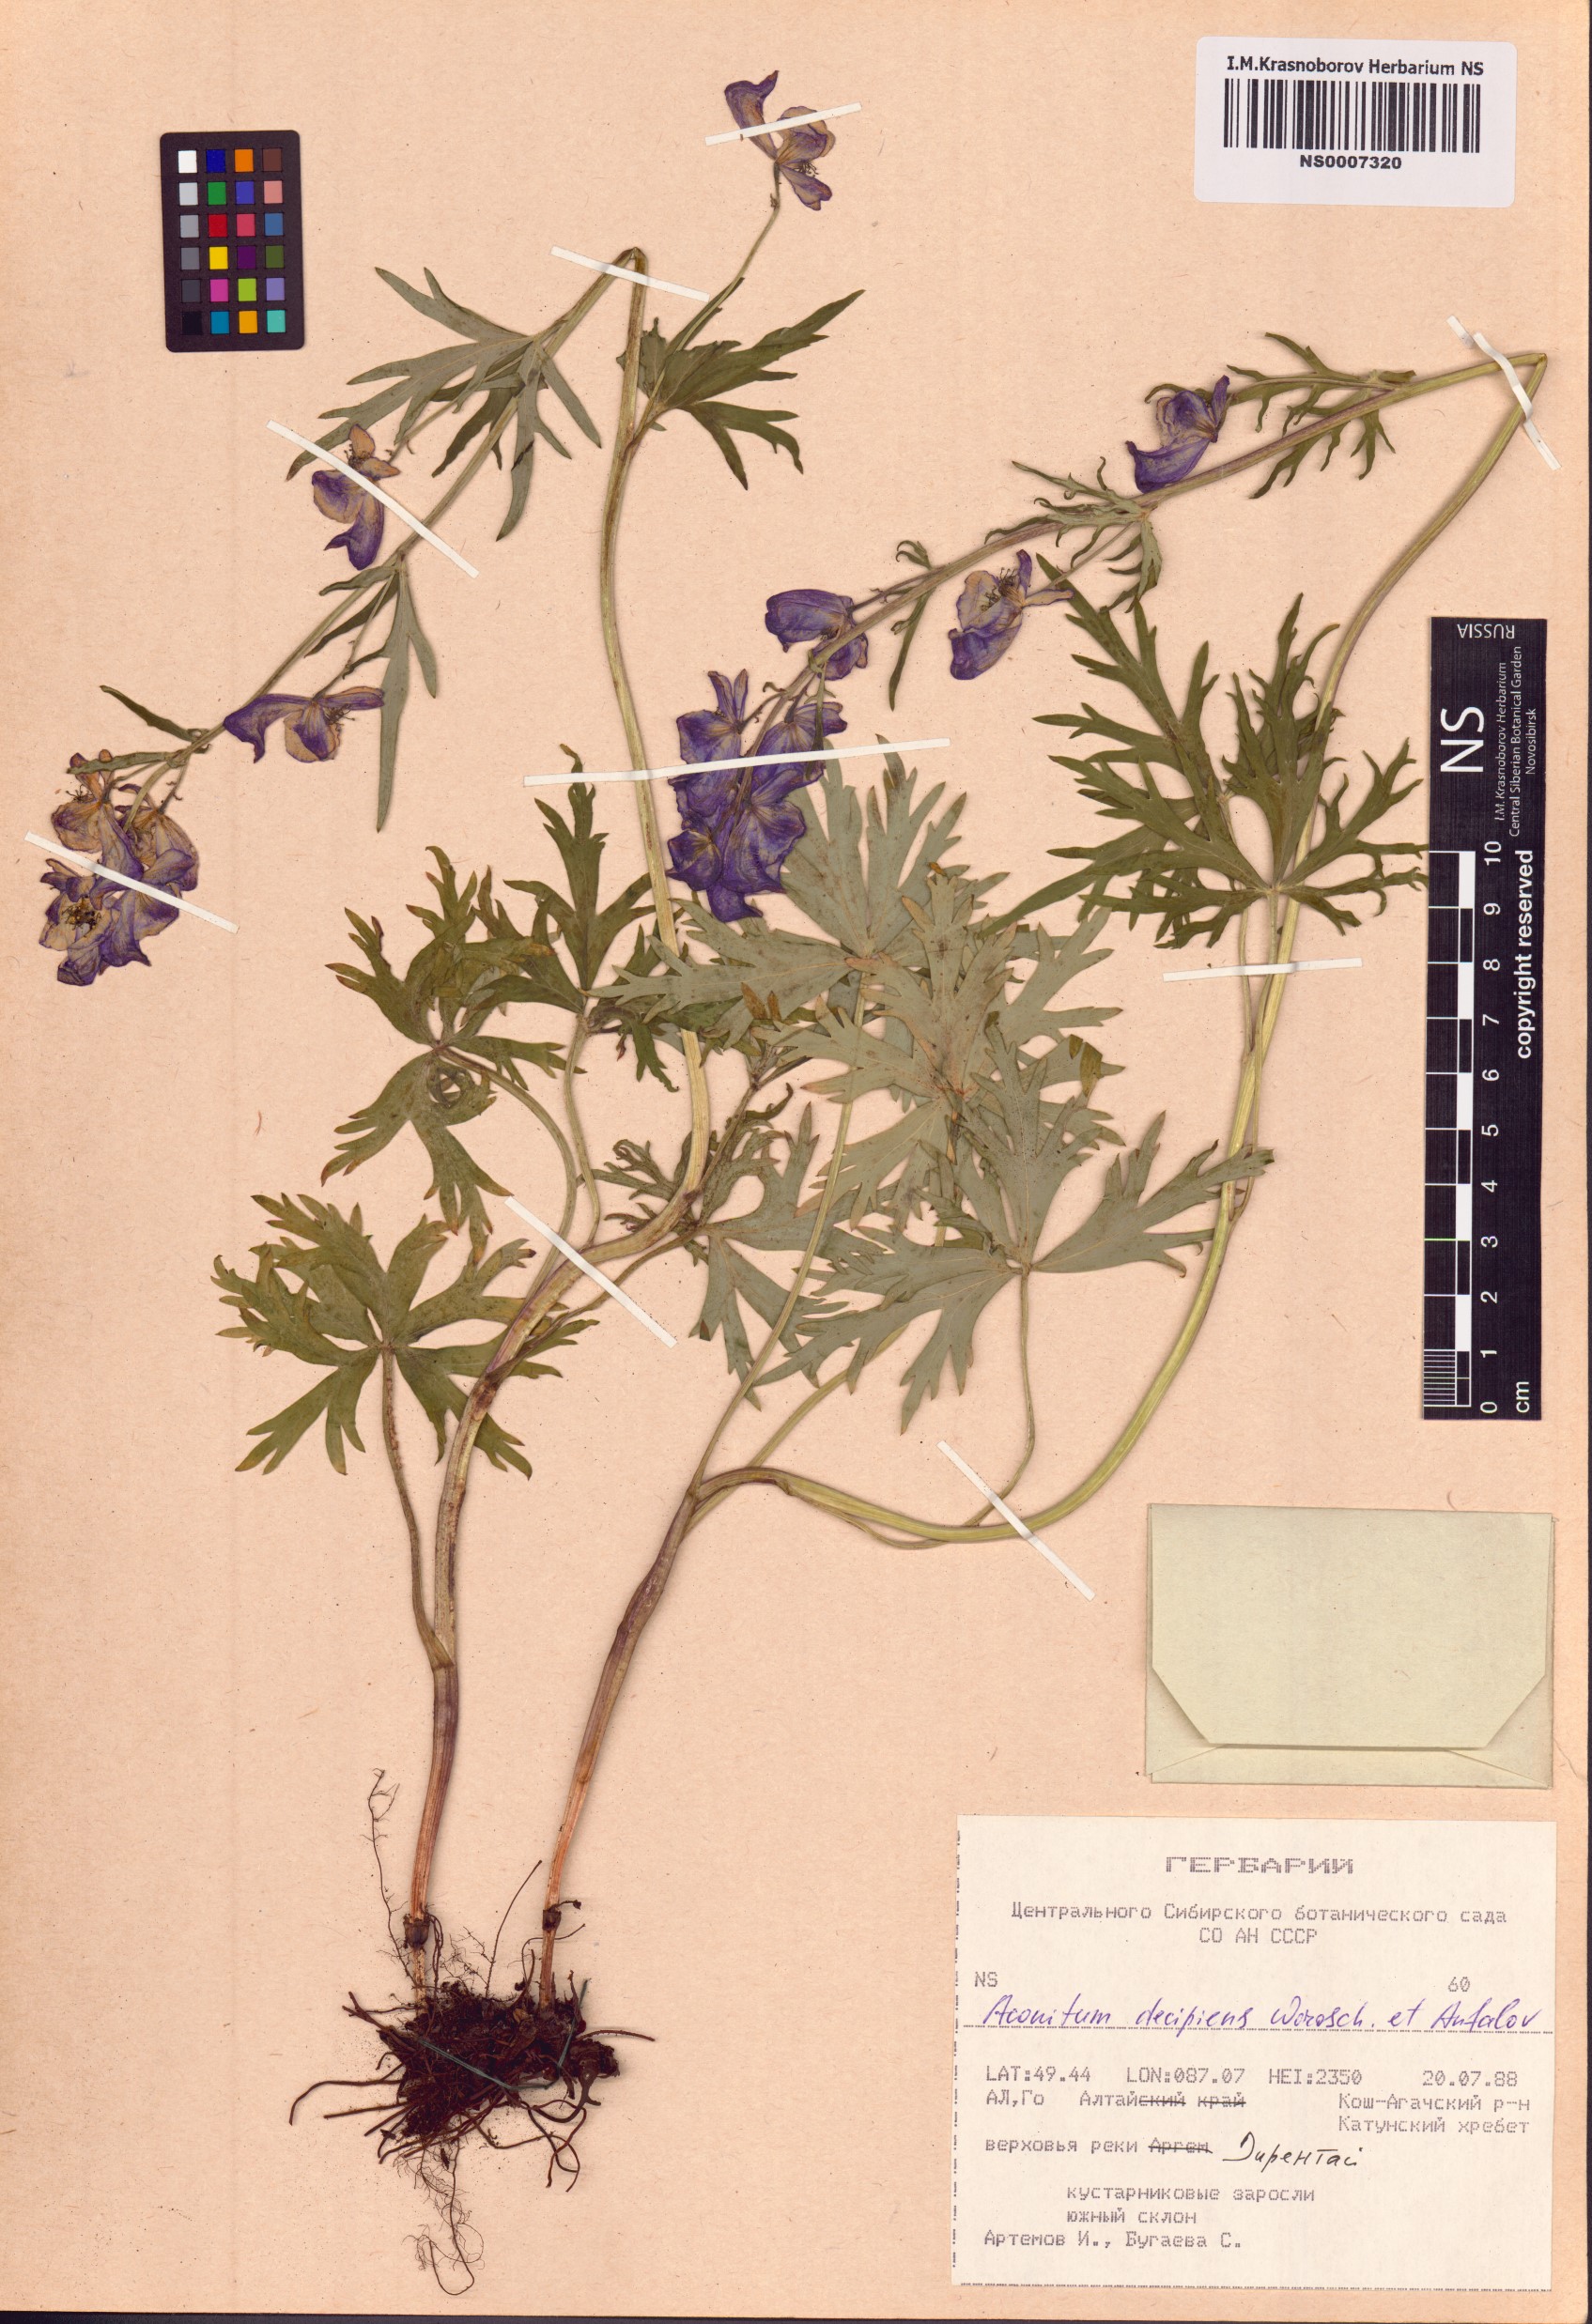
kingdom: Plantae
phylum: Tracheophyta
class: Magnoliopsida
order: Ranunculales
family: Ranunculaceae
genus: Aconitum
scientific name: Aconitum decipiens
